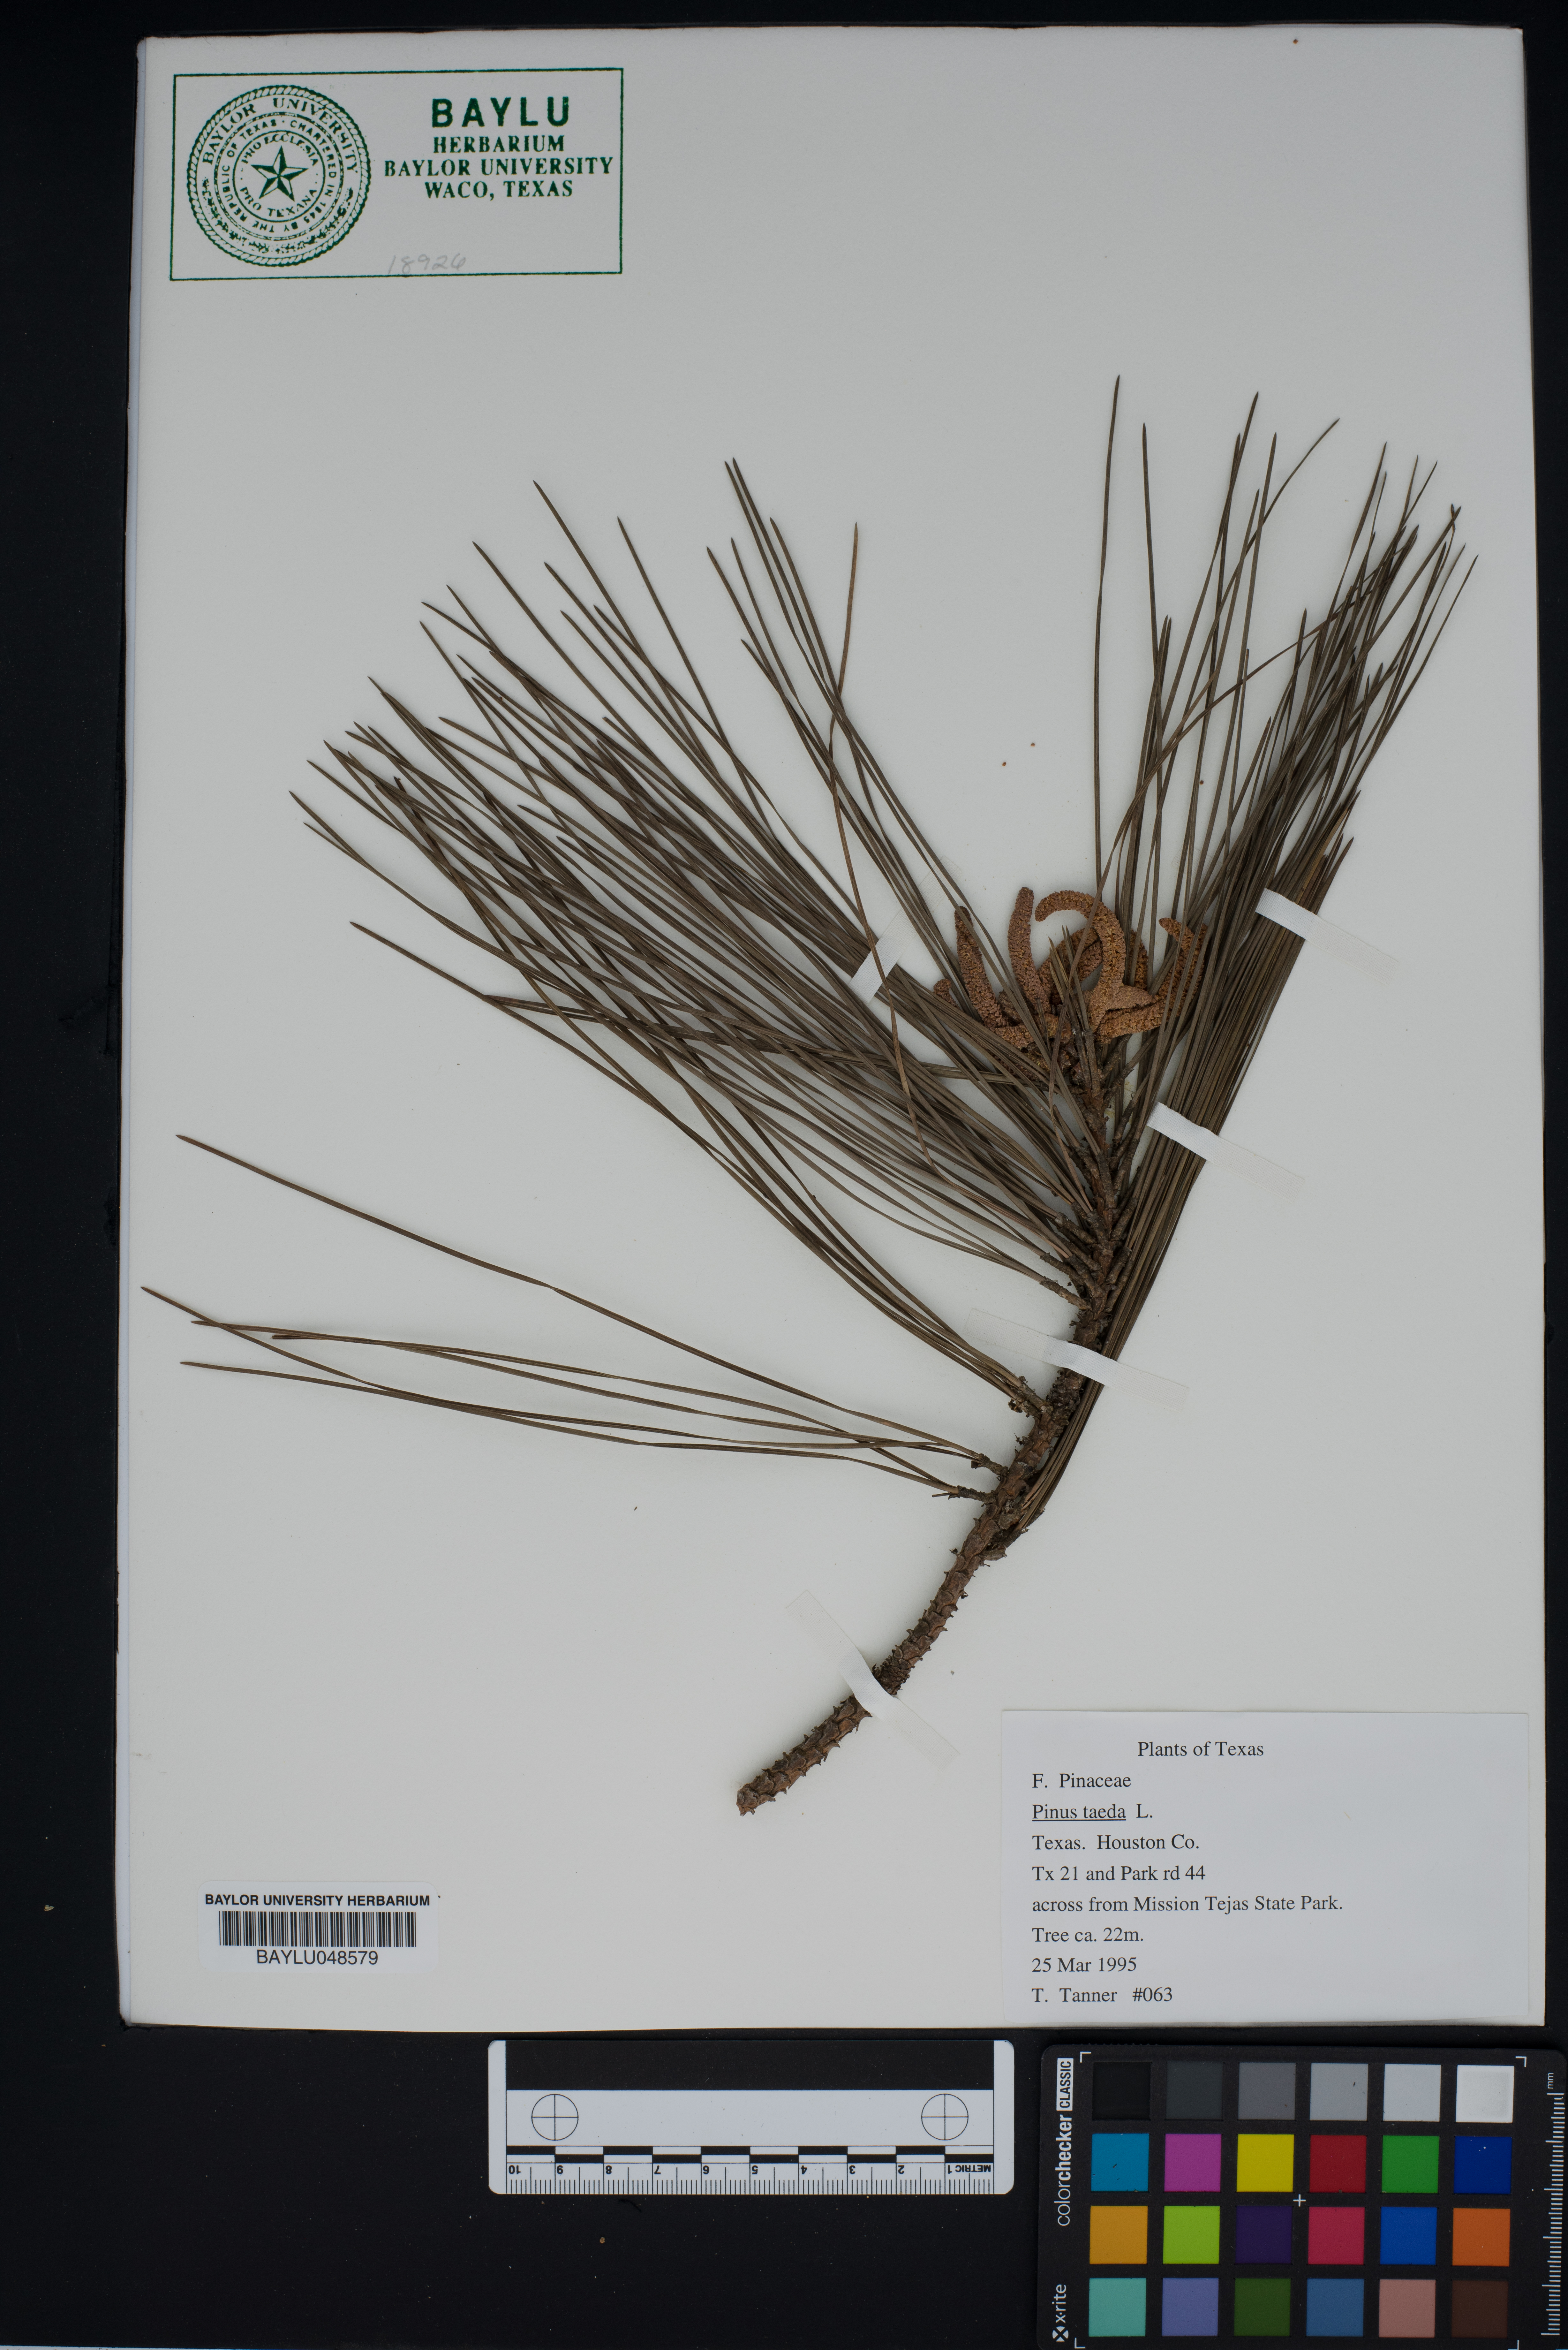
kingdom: Plantae
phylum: Tracheophyta
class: Pinopsida
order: Pinales
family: Pinaceae
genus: Pinus
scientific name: Pinus taeda
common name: Loblolly pine
